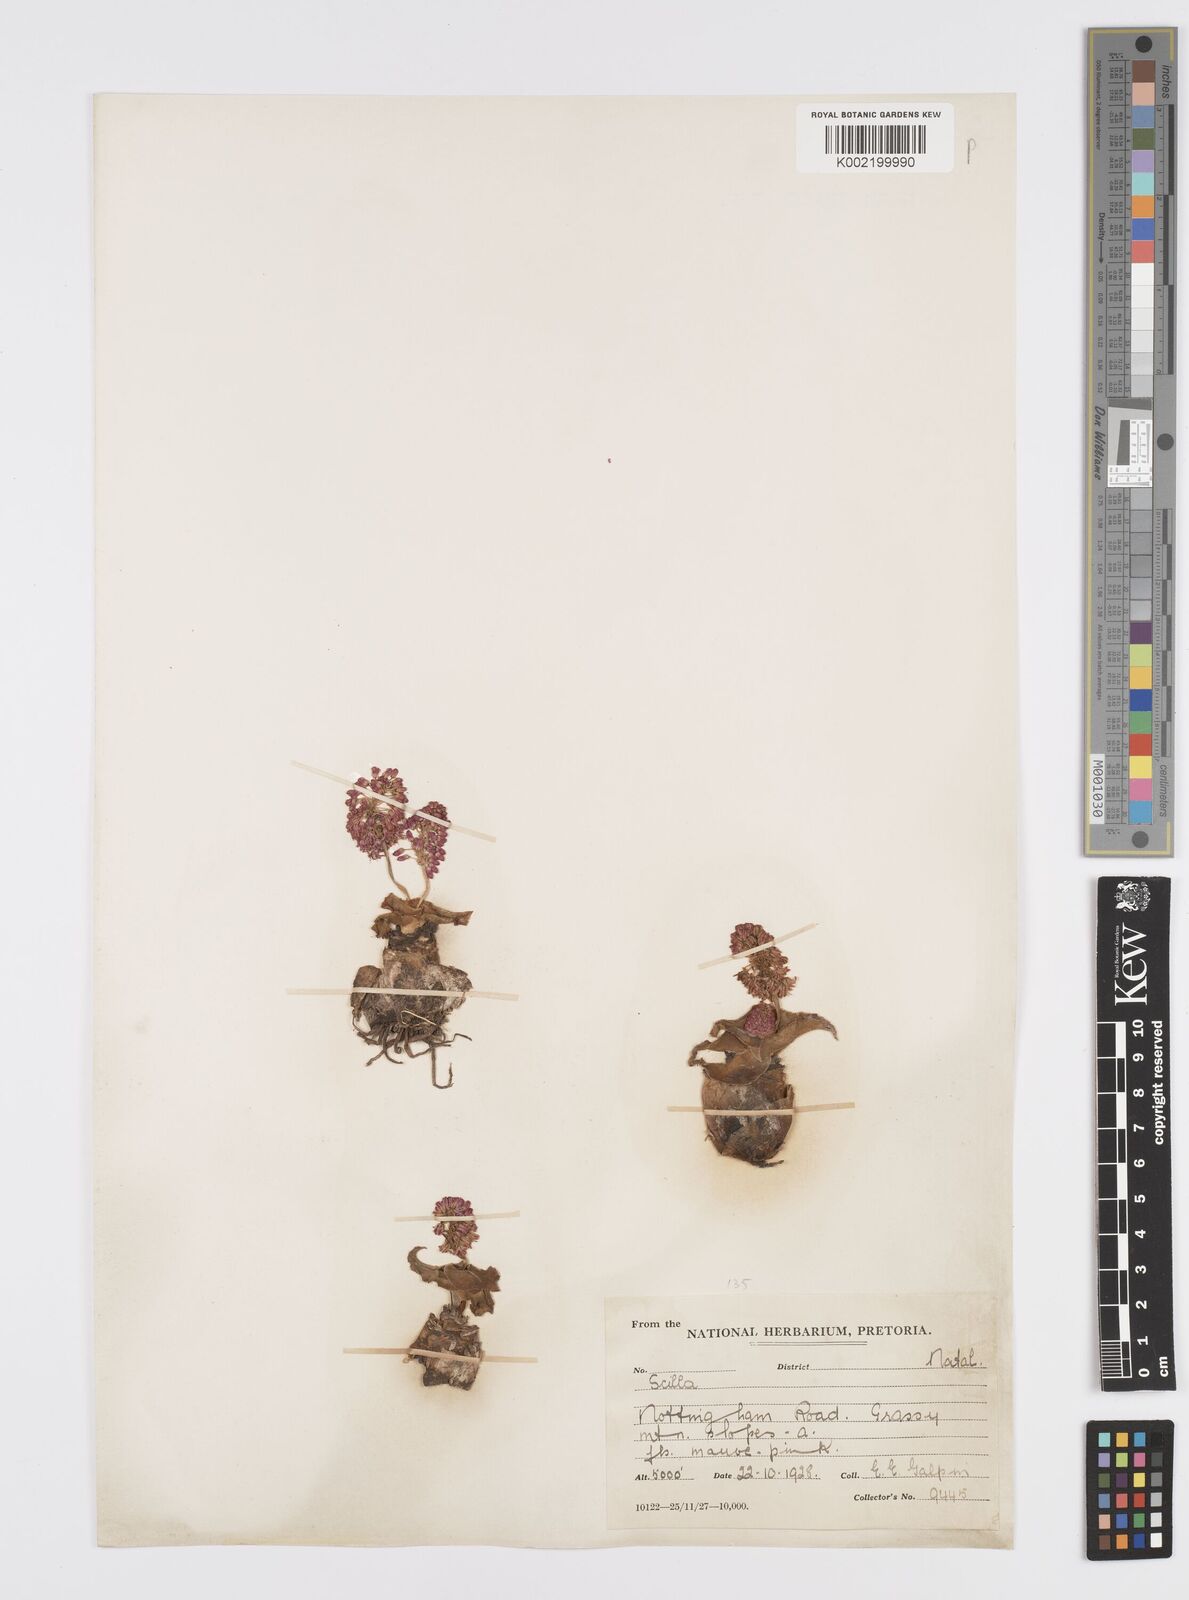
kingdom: Plantae
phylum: Tracheophyta
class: Liliopsida
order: Asparagales
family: Asparagaceae
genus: Ledebouria
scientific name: Ledebouria ovatifolia
